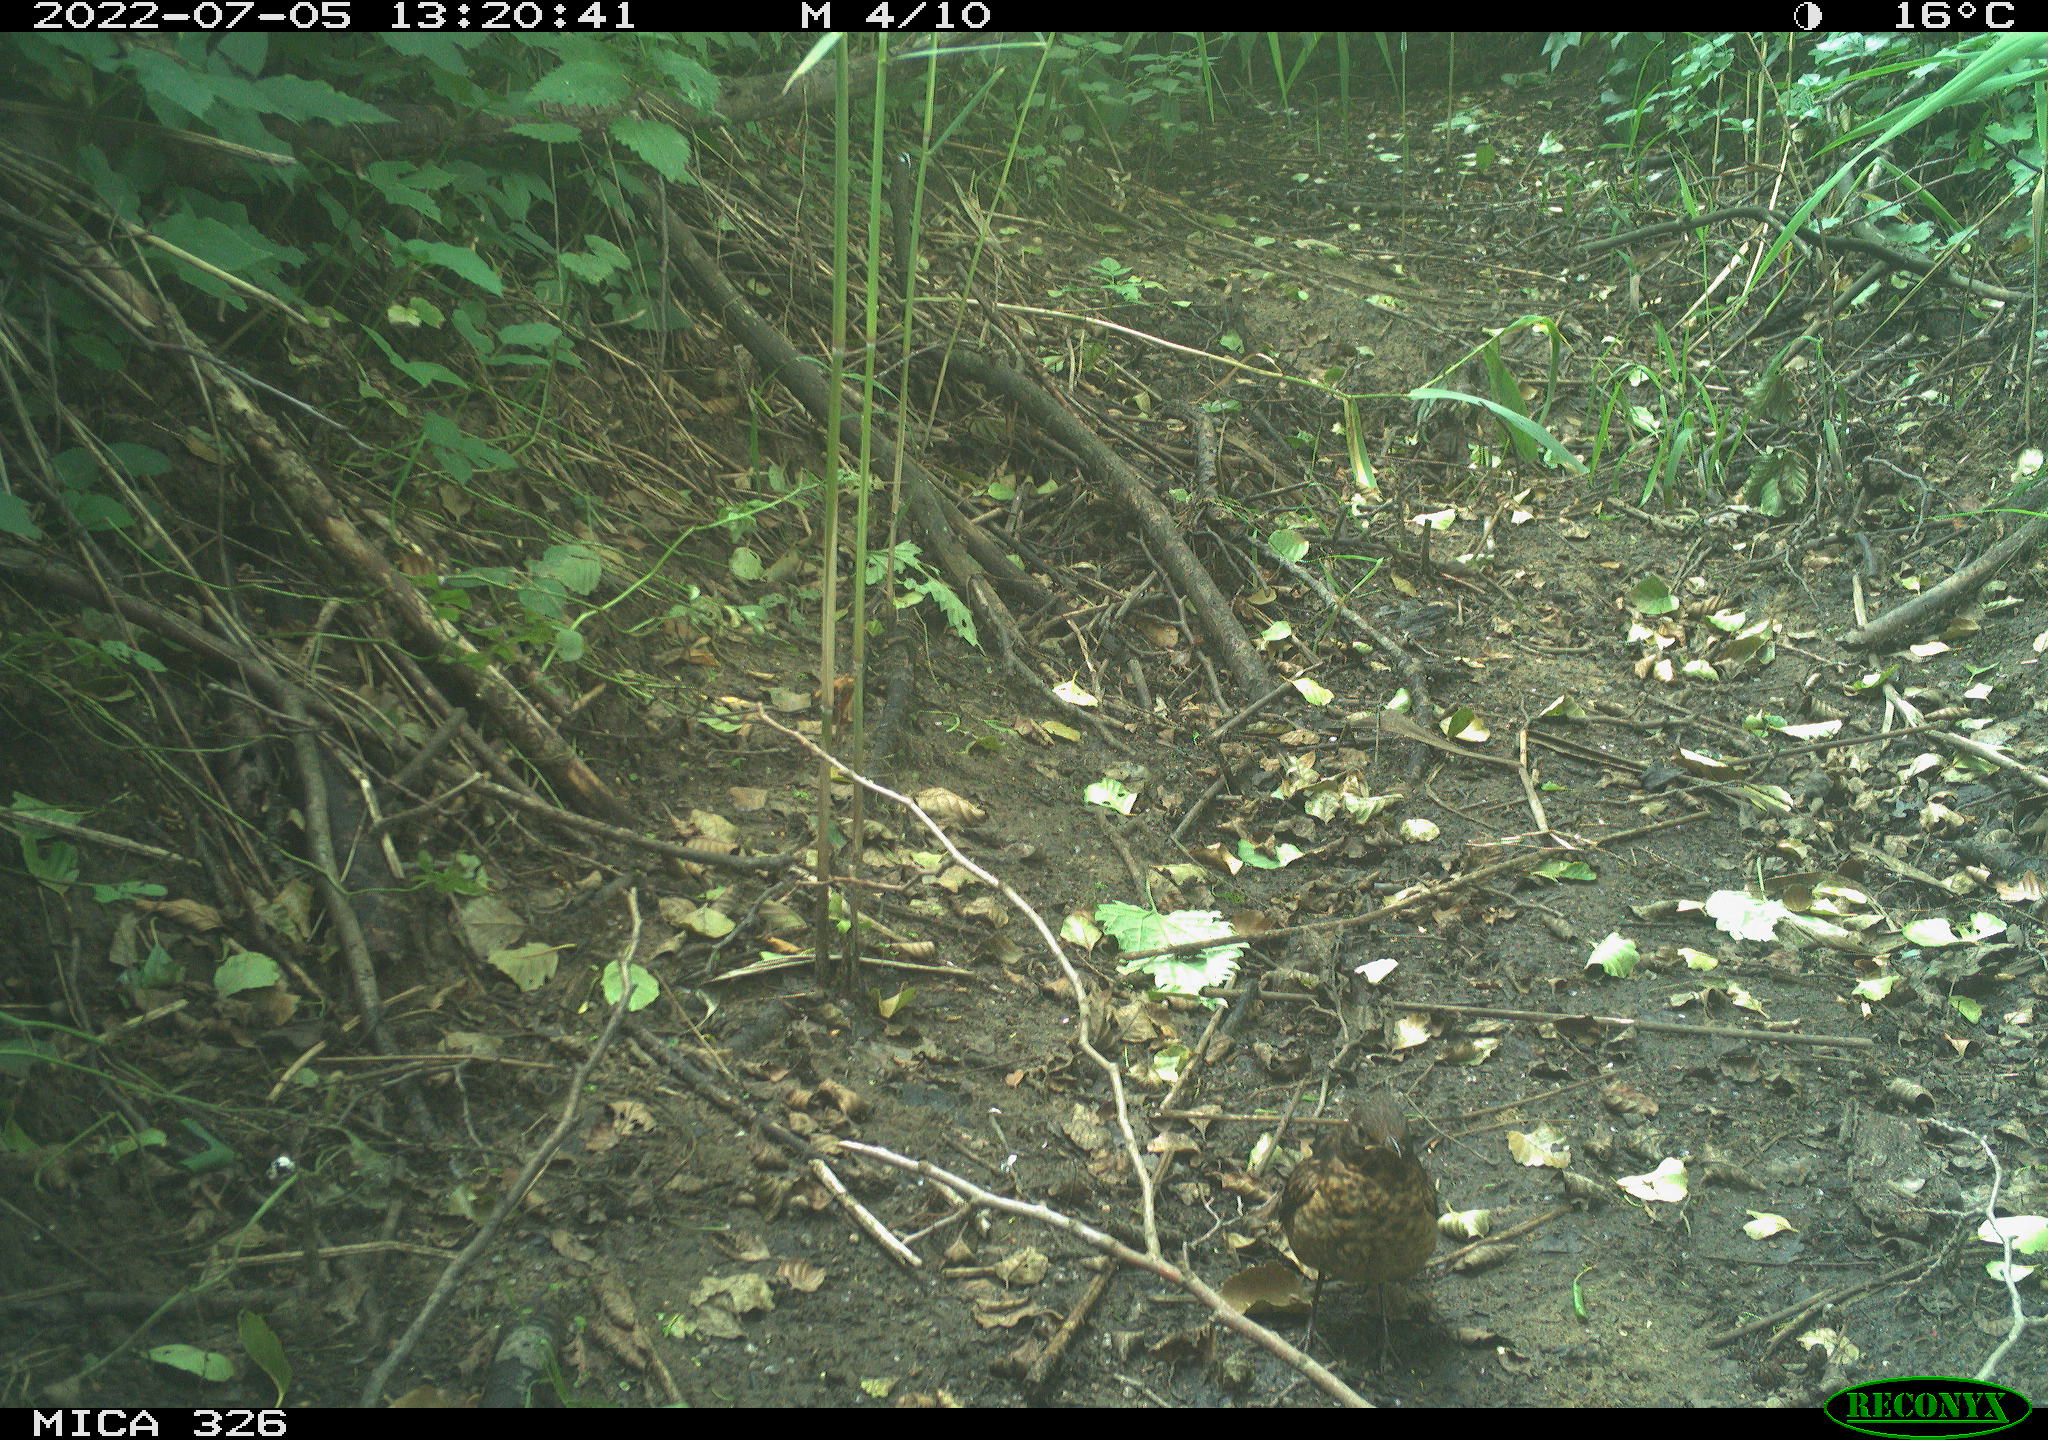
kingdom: Animalia
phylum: Chordata
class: Aves
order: Passeriformes
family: Turdidae
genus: Turdus
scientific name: Turdus philomelos
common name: Song thrush
